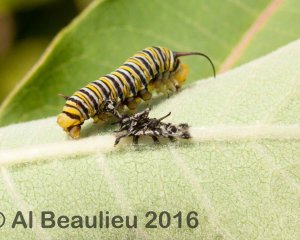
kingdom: Animalia
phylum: Arthropoda
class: Insecta
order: Lepidoptera
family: Nymphalidae
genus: Danaus
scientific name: Danaus plexippus
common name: Monarch
